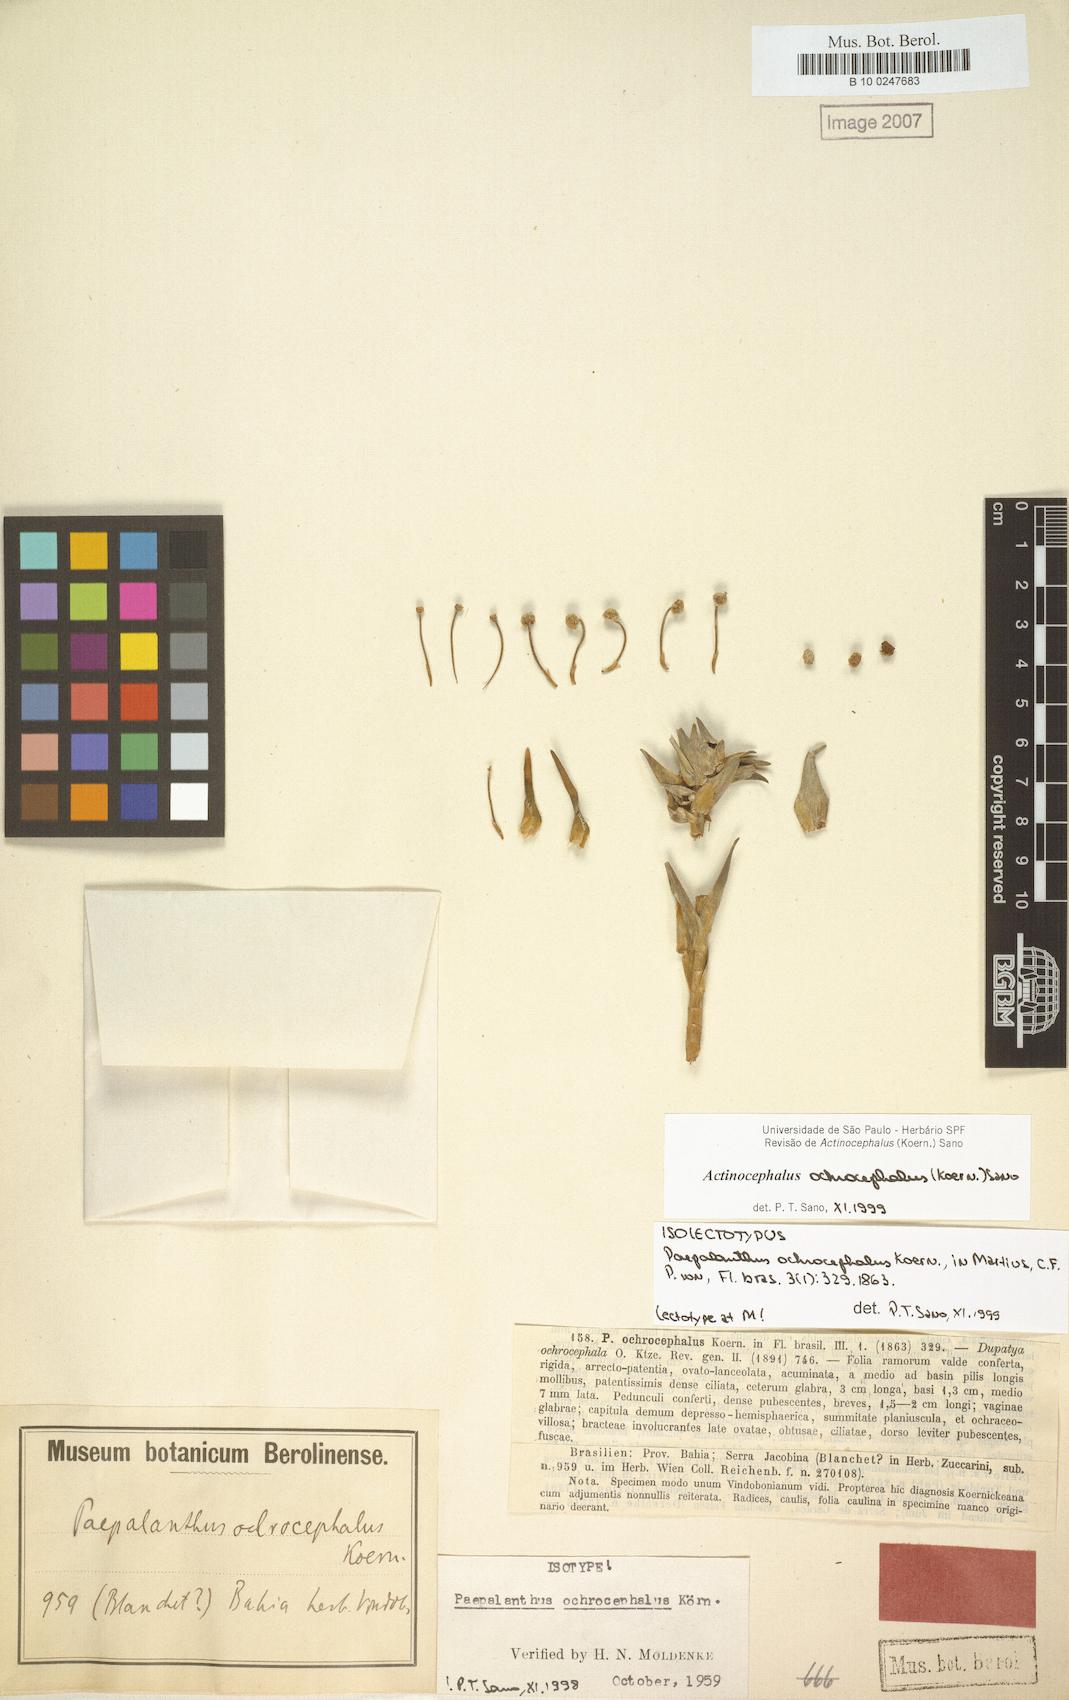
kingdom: Plantae
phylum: Tracheophyta
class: Liliopsida
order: Poales
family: Eriocaulaceae
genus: Paepalanthus
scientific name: Paepalanthus ochrocephalus
